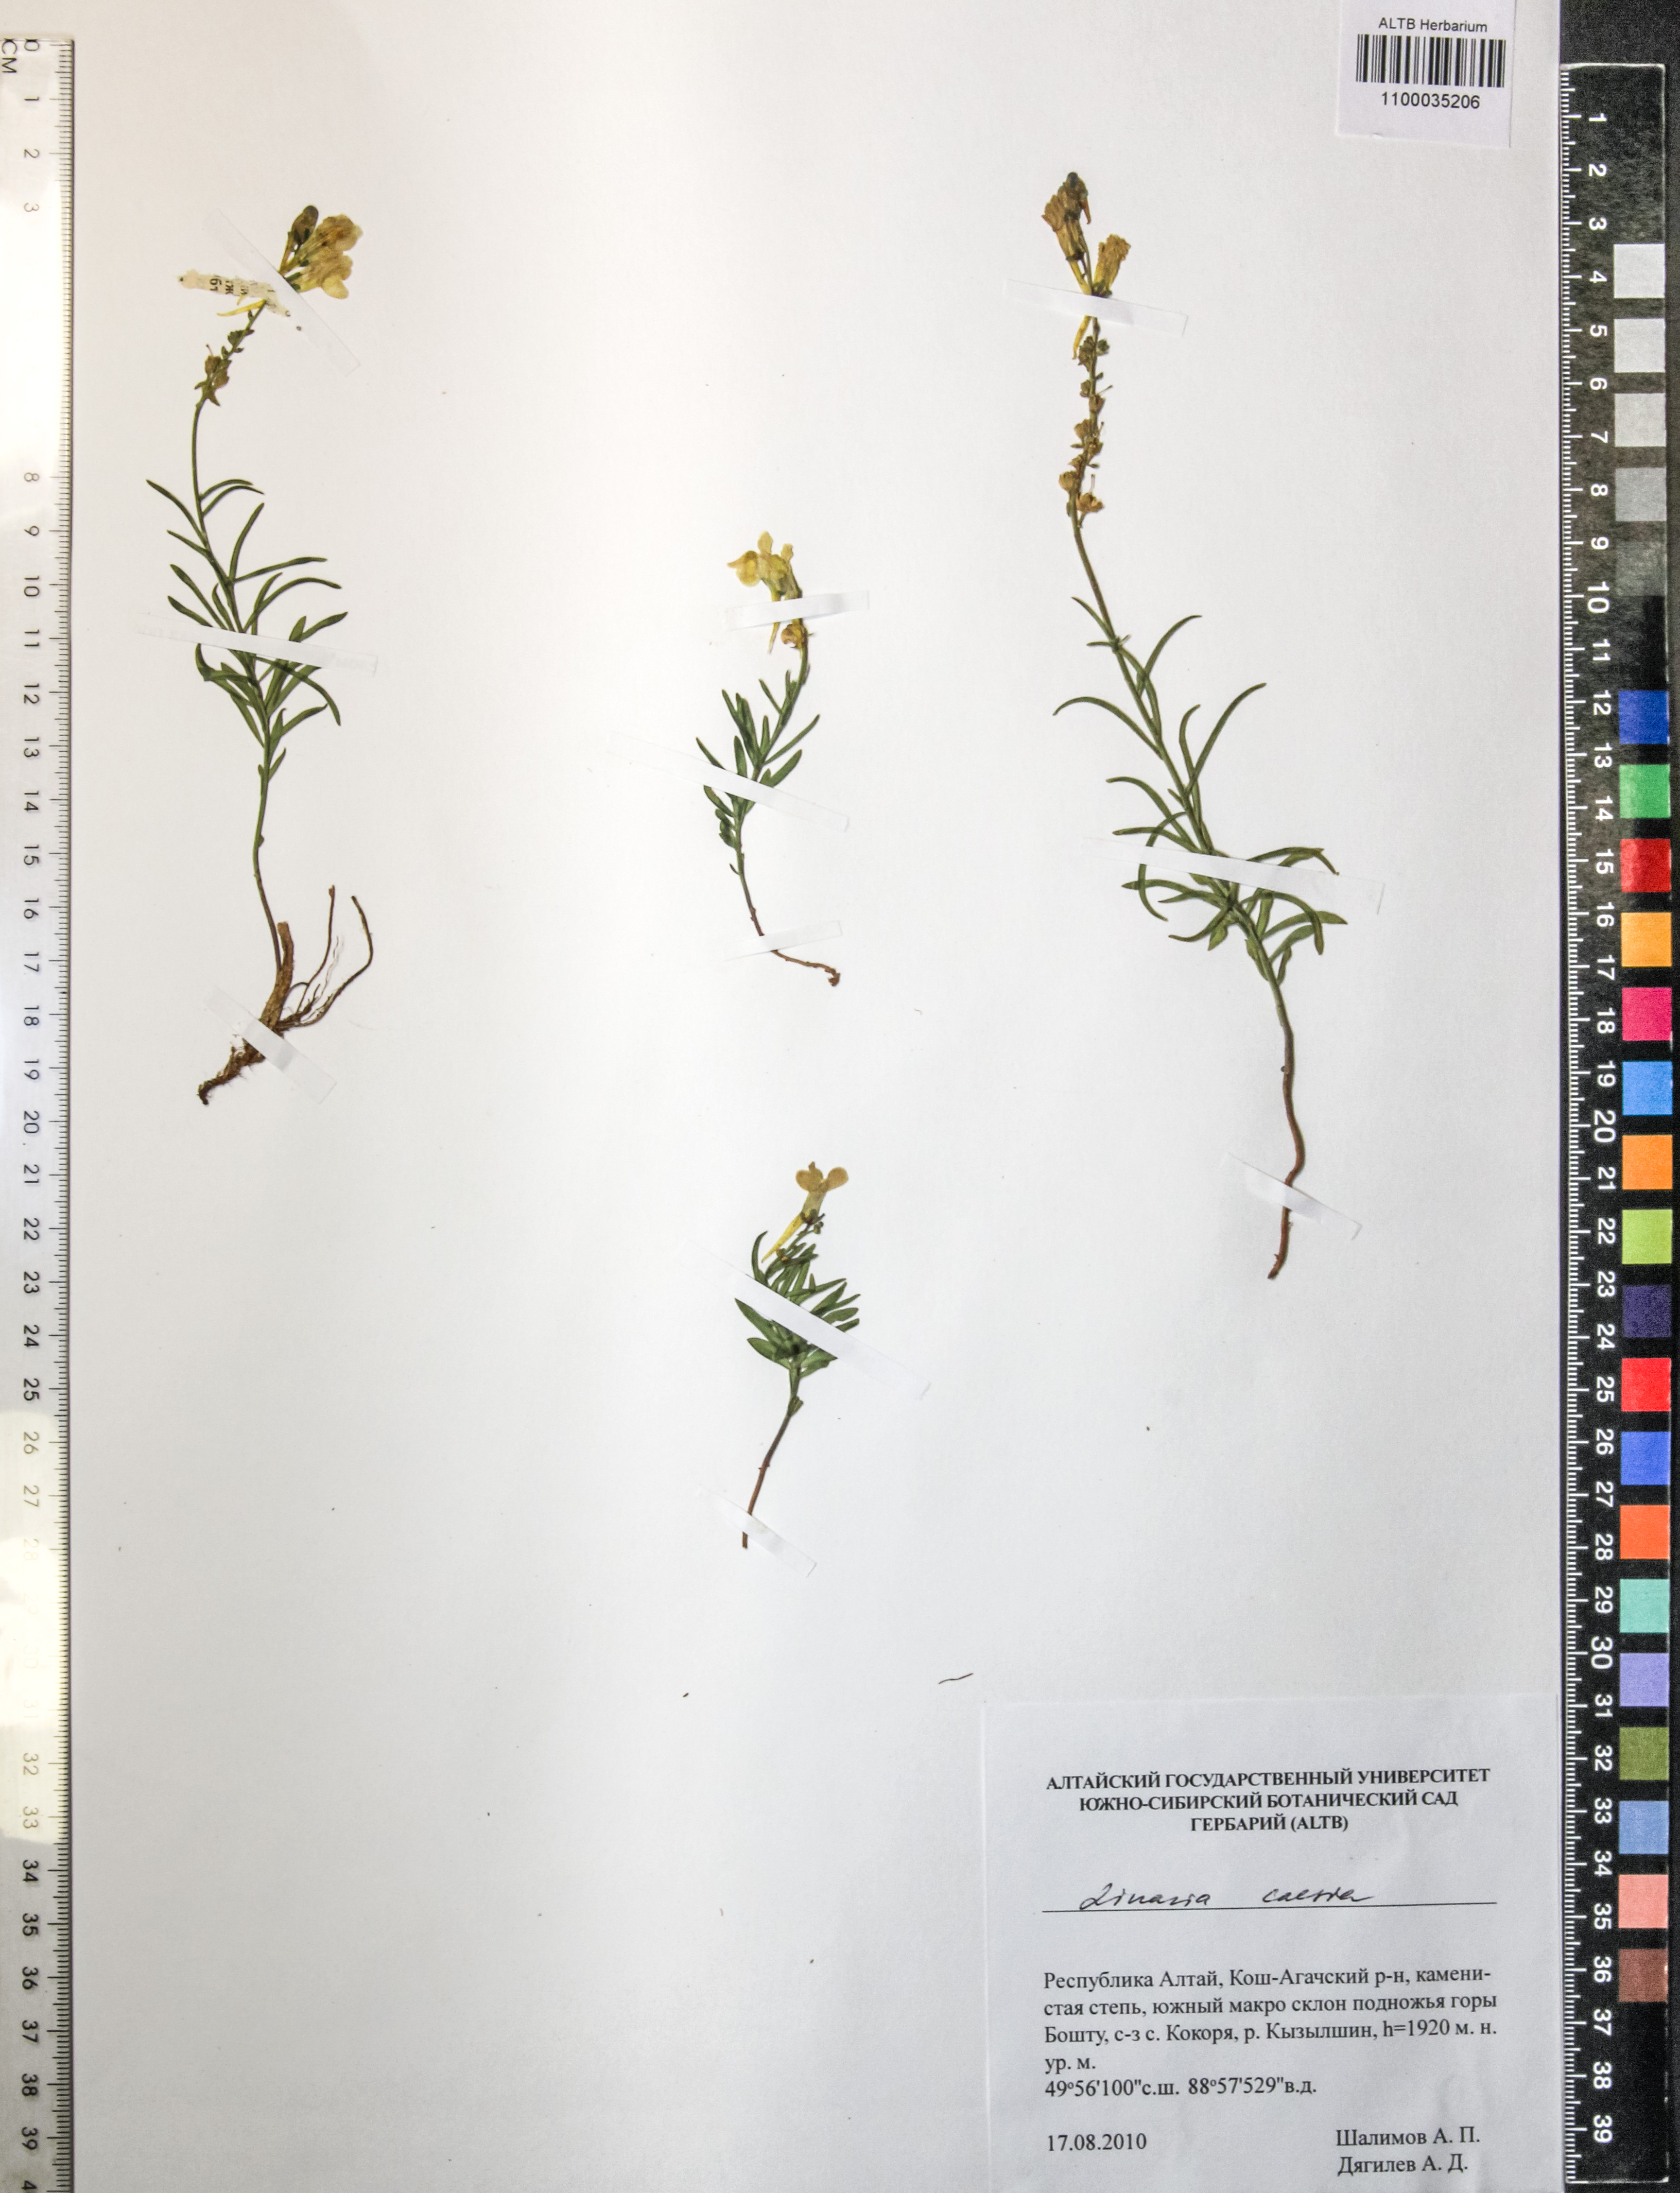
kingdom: Plantae
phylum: Tracheophyta
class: Magnoliopsida
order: Lamiales
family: Plantaginaceae
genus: Linaria
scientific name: Linaria caesia
